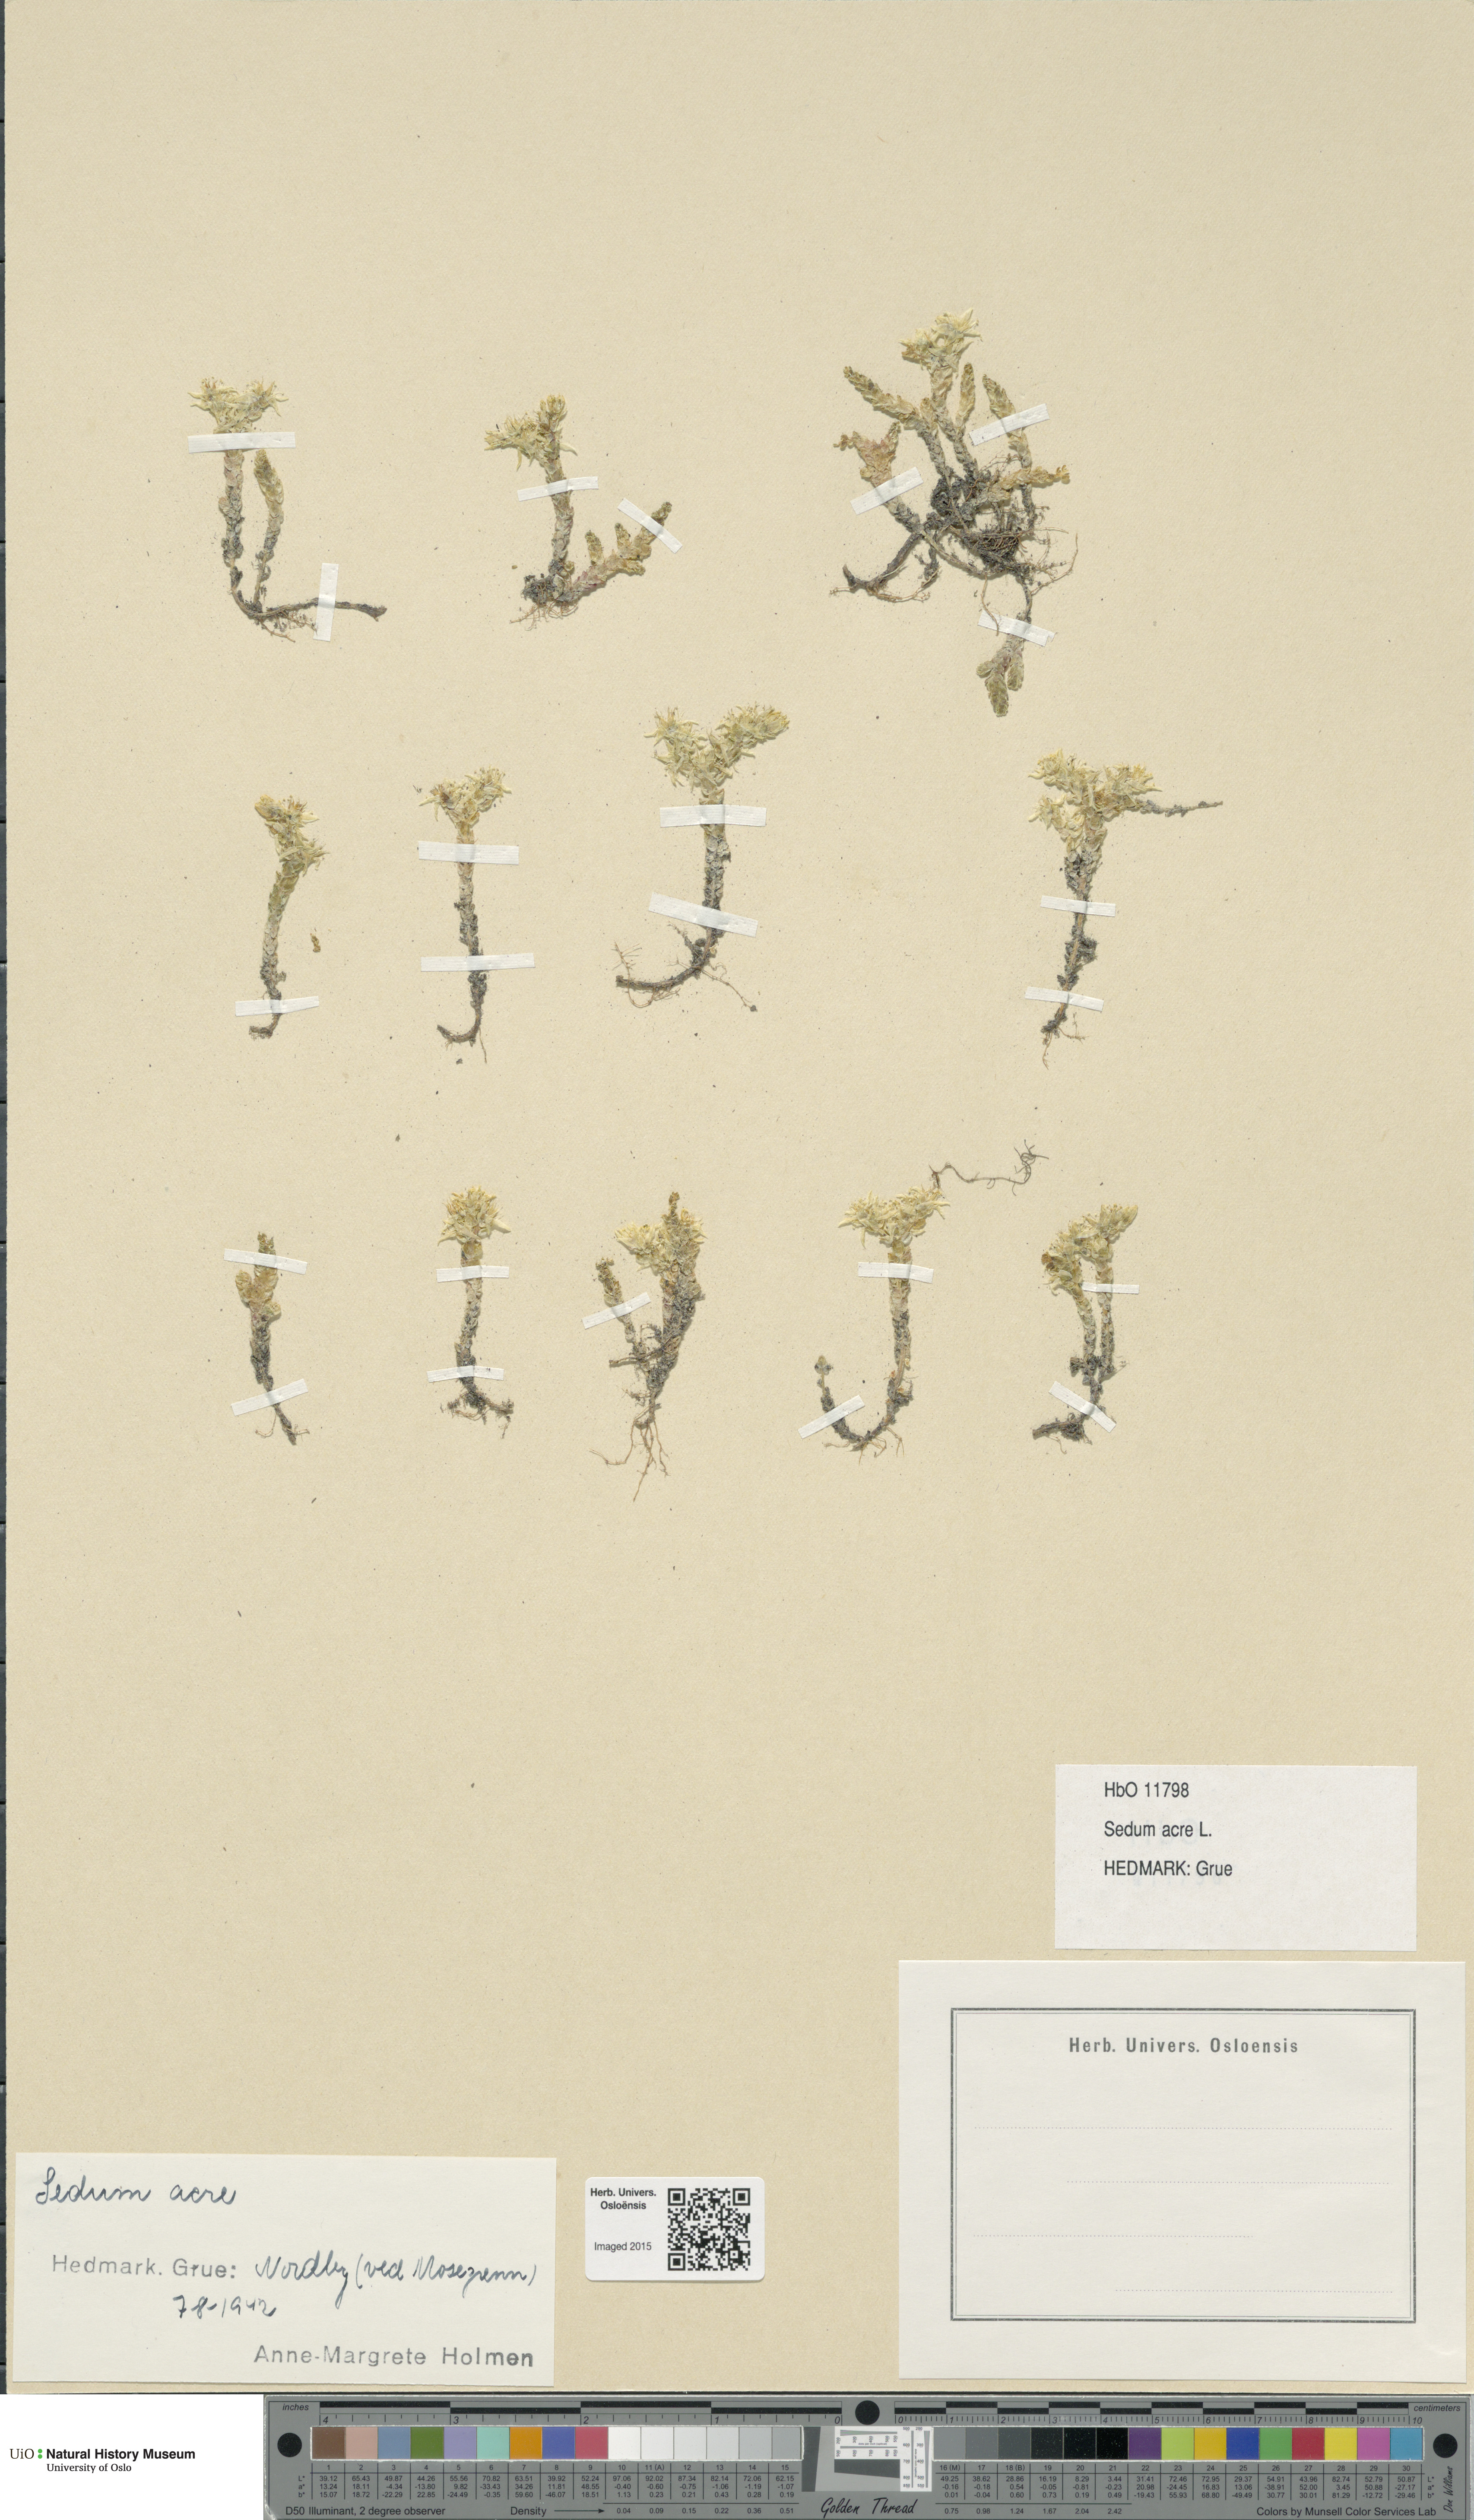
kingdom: Plantae
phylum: Tracheophyta
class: Magnoliopsida
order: Saxifragales
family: Crassulaceae
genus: Sedum
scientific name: Sedum acre
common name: Biting stonecrop
